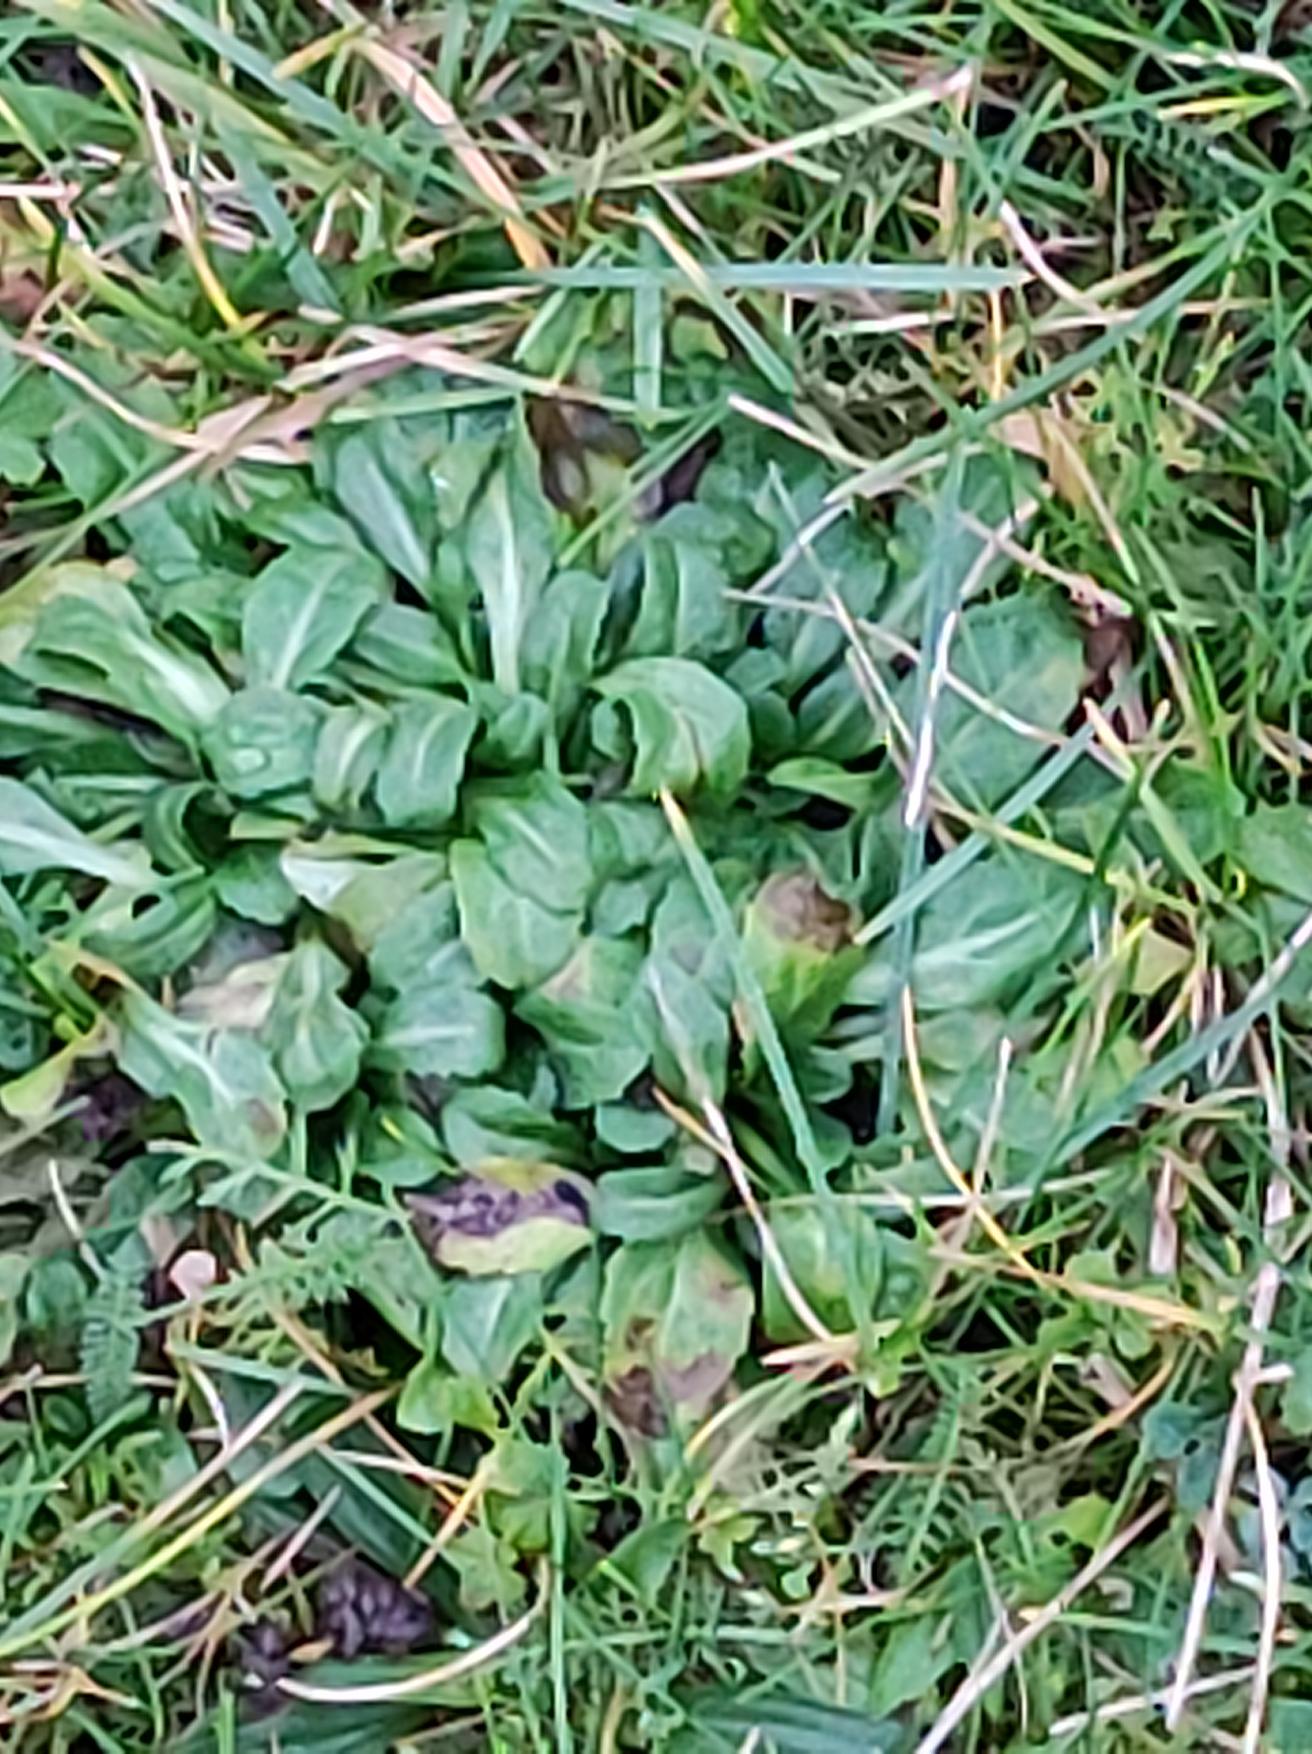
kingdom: Plantae
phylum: Tracheophyta
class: Magnoliopsida
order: Asterales
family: Asteraceae
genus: Bellis
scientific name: Bellis perennis
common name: Tusindfryd
